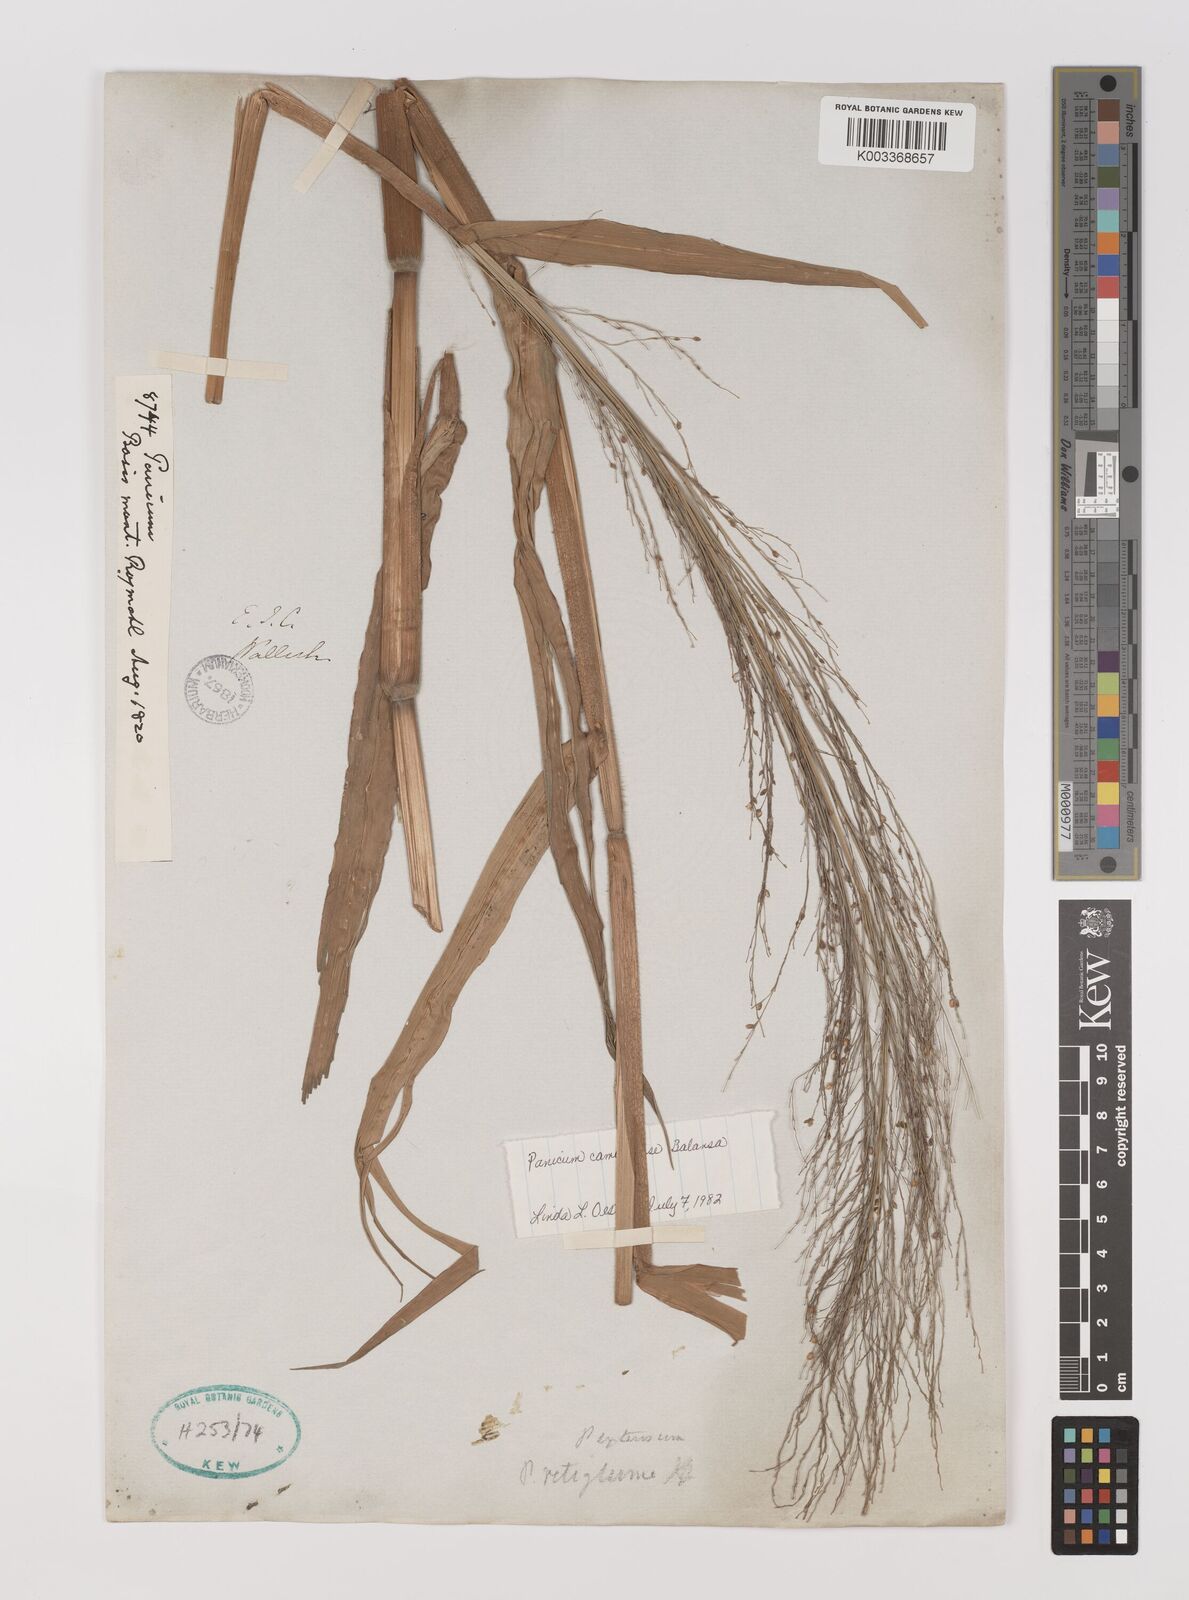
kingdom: Plantae
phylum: Tracheophyta
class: Liliopsida
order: Poales
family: Poaceae
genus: Panicum
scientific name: Panicum luzonense
